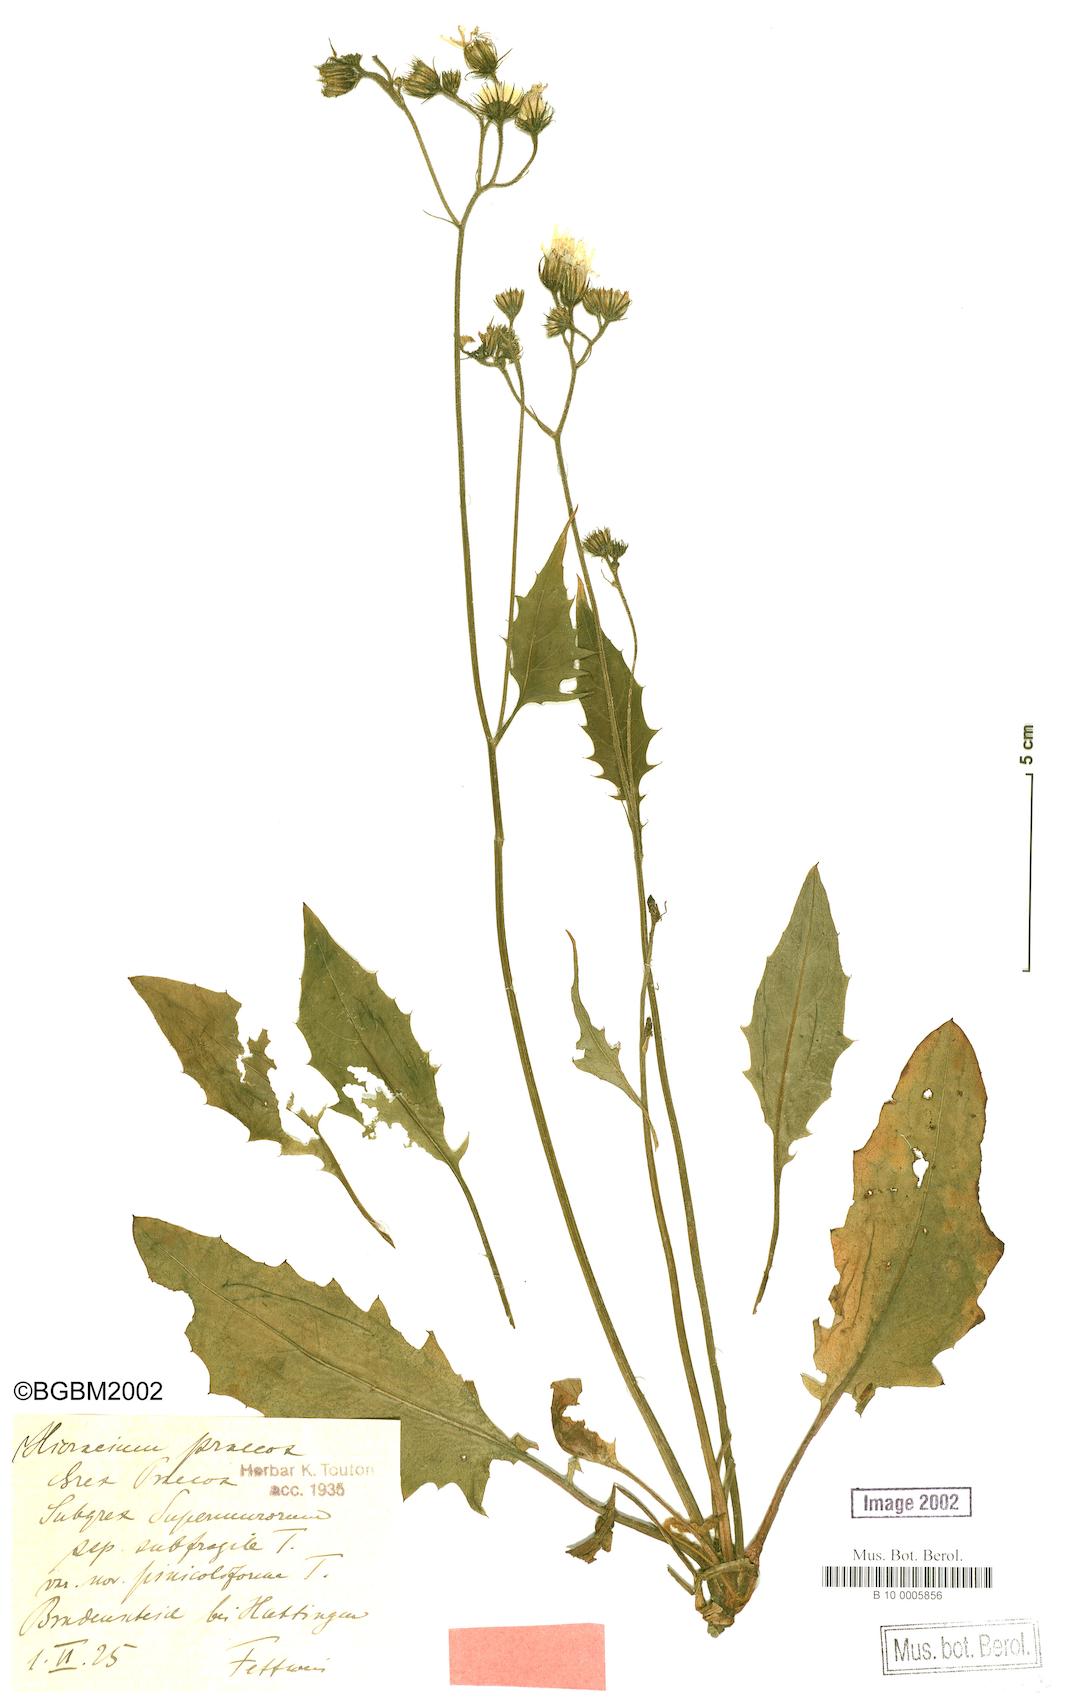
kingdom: Plantae
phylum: Tracheophyta
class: Magnoliopsida
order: Asterales
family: Asteraceae
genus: Hieracium
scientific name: Hieracium praecox
